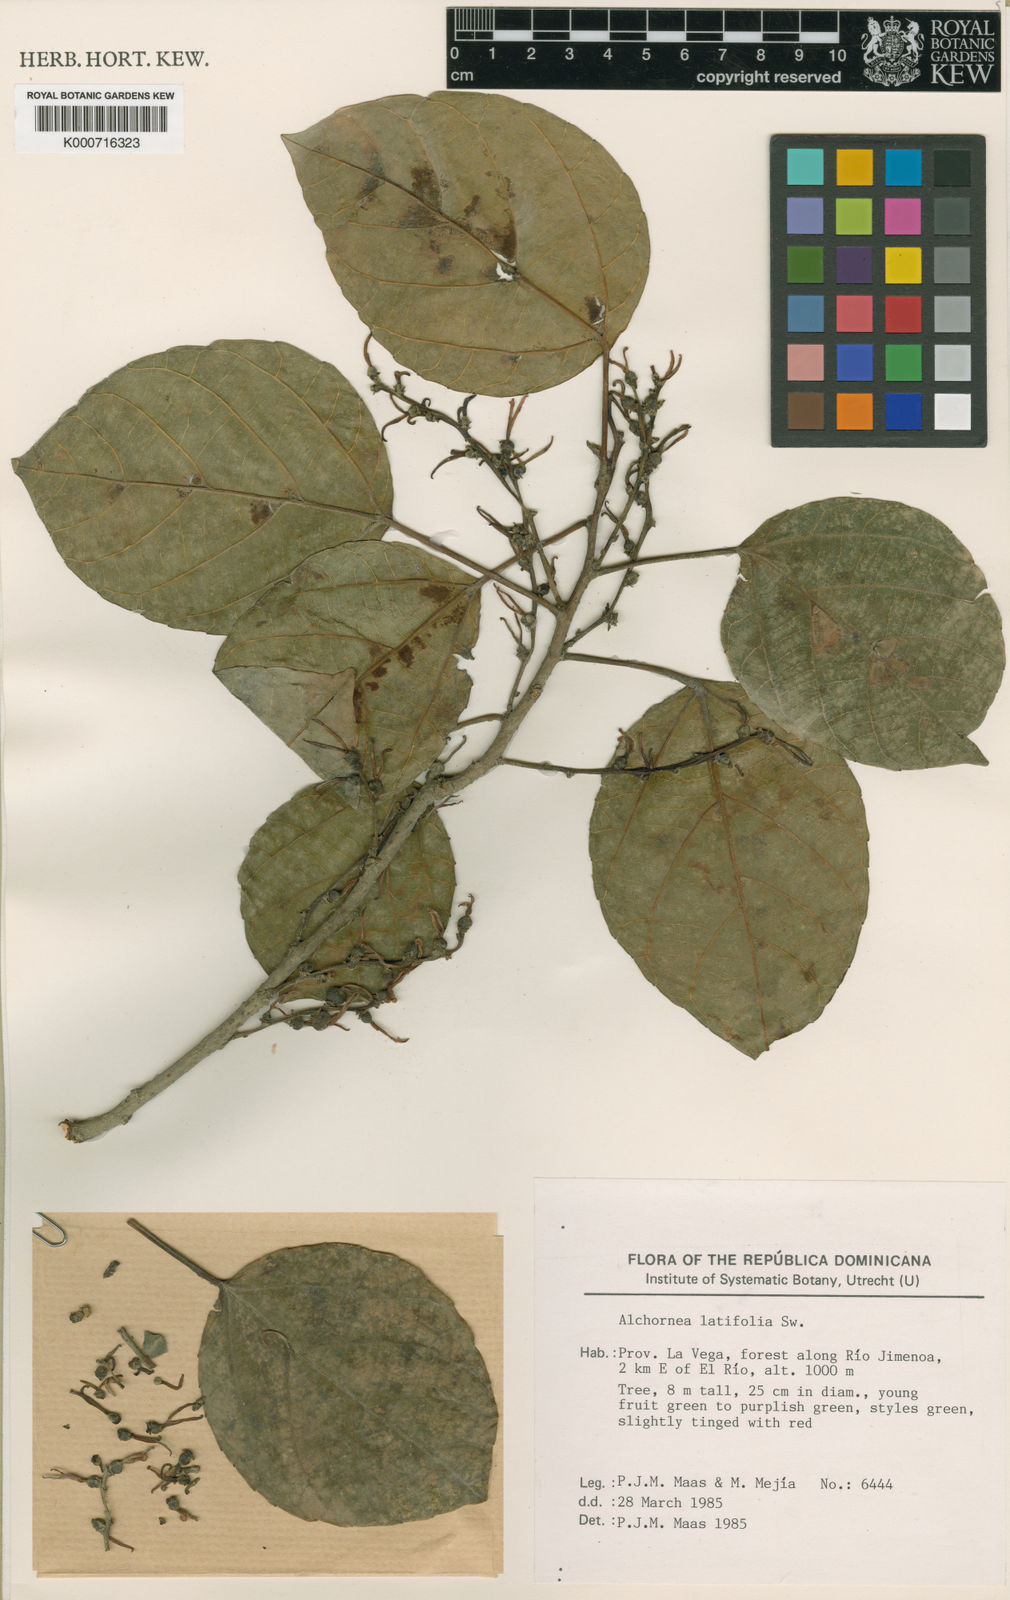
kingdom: Plantae
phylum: Tracheophyta
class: Magnoliopsida
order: Malpighiales
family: Euphorbiaceae
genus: Alchornea
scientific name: Alchornea latifolia
